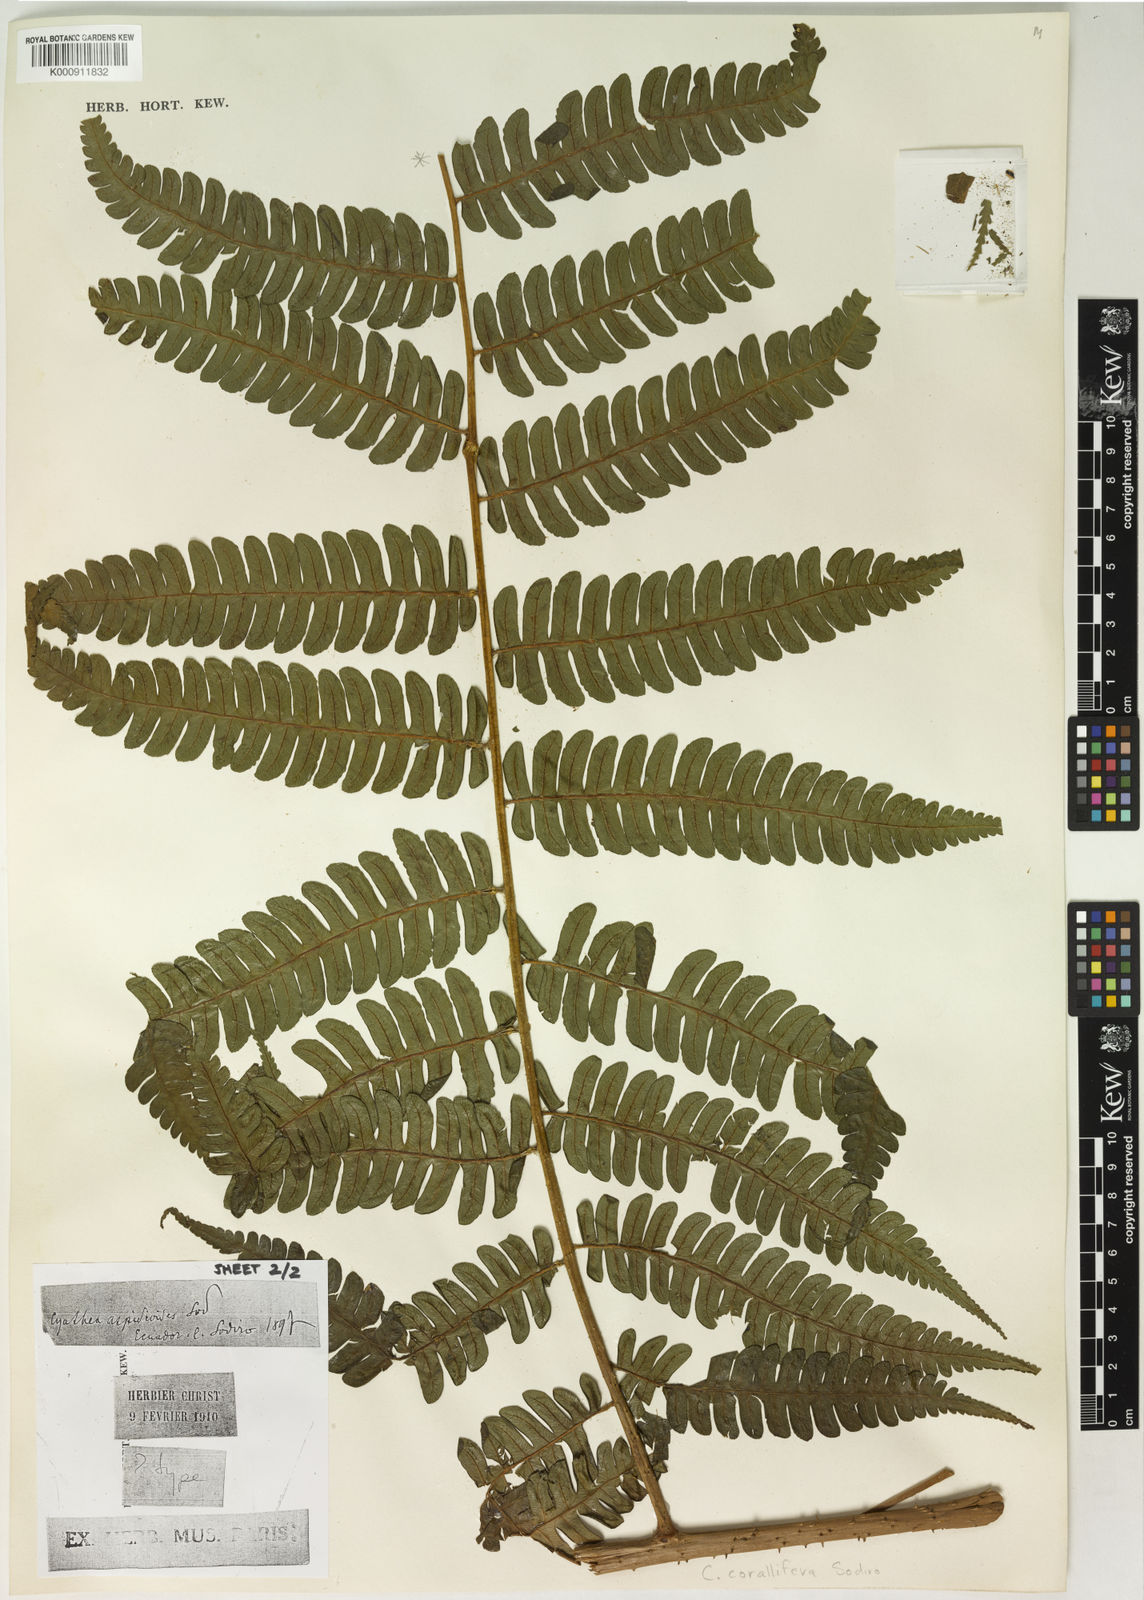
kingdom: Plantae
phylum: Tracheophyta
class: Polypodiopsida
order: Cyatheales
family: Cyatheaceae
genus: Cyathea
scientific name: Cyathea corallifera
